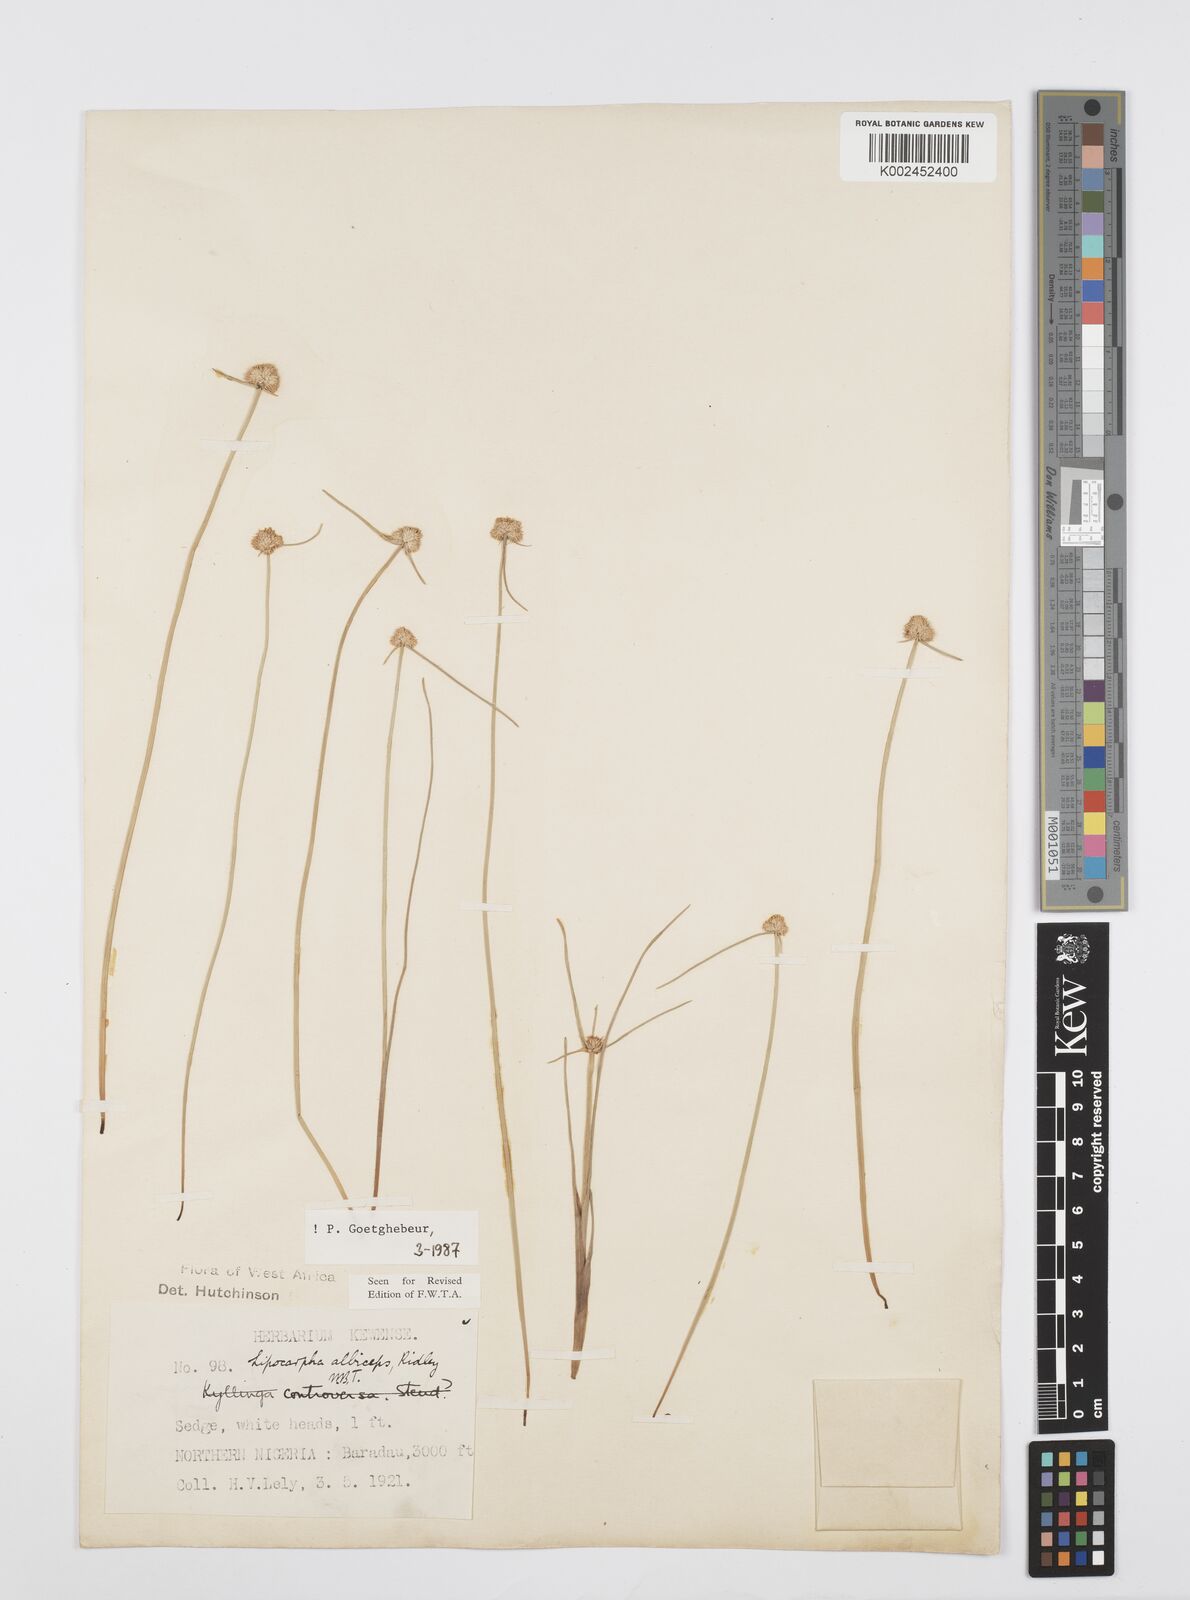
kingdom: Plantae
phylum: Tracheophyta
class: Liliopsida
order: Poales
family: Cyperaceae
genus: Cyperus
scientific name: Cyperus albiceps
